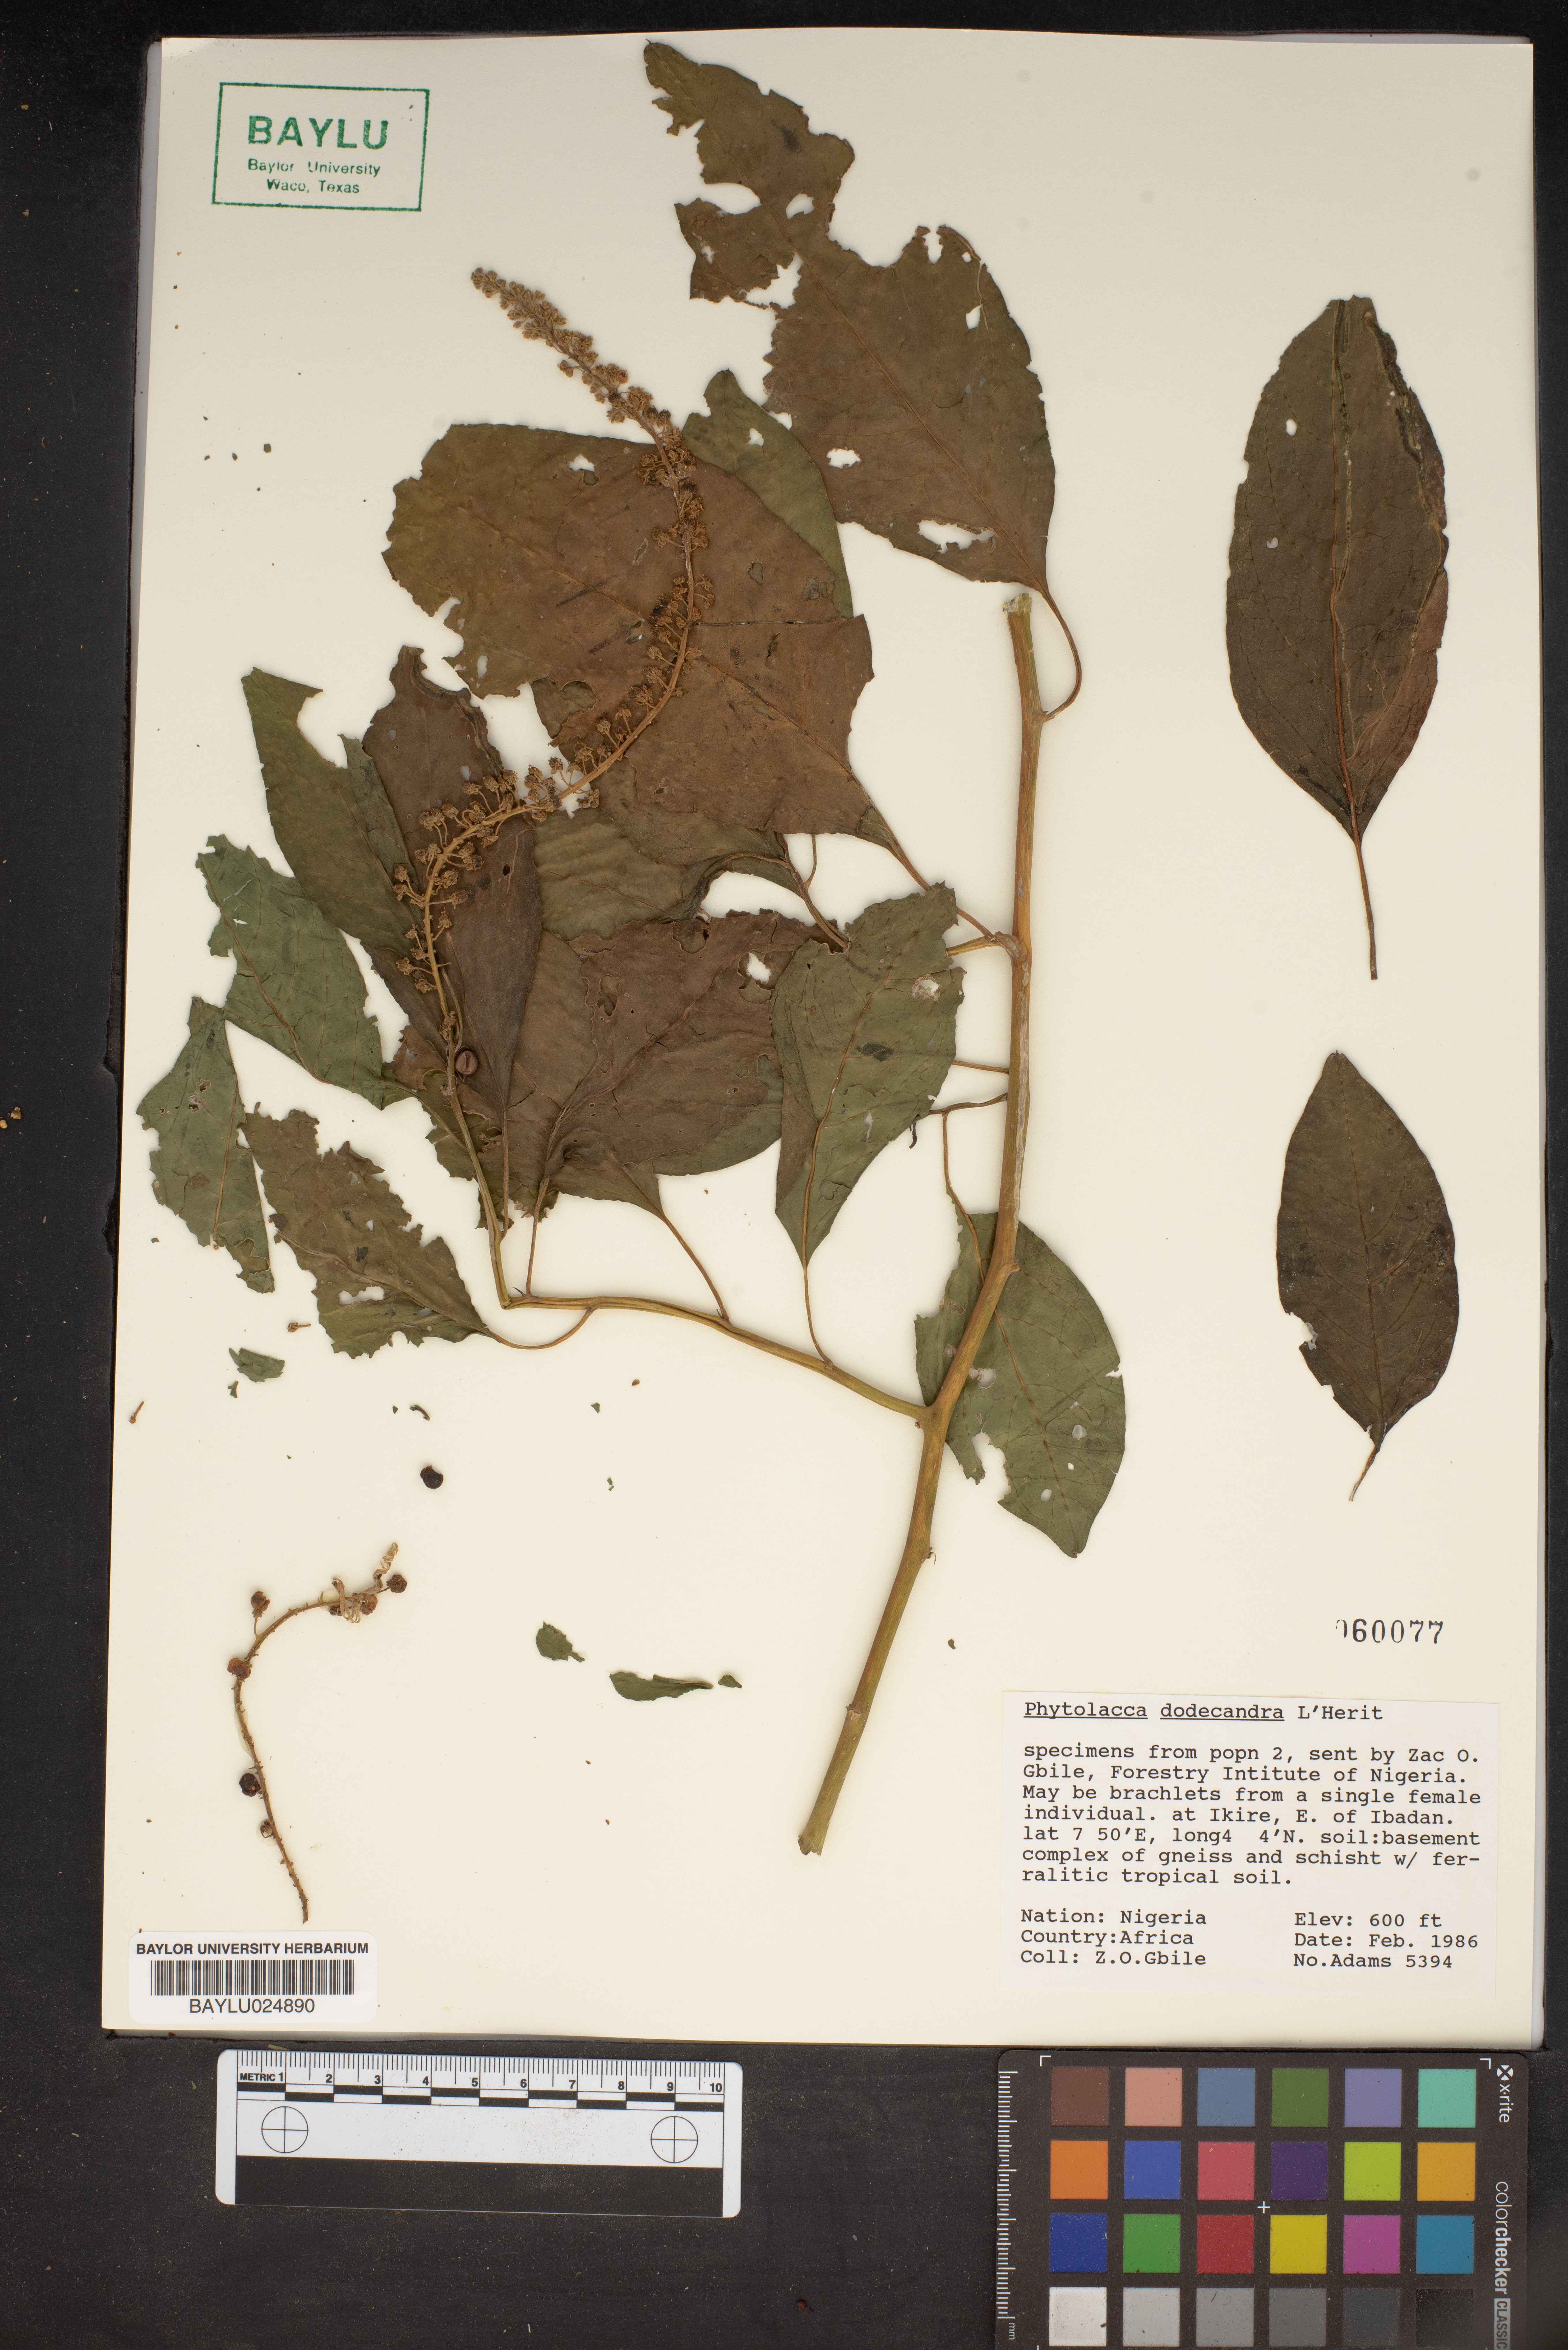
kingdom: Plantae
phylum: Tracheophyta
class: Magnoliopsida
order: Caryophyllales
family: Phytolaccaceae
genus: Phytolacca
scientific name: Phytolacca dodecandra
